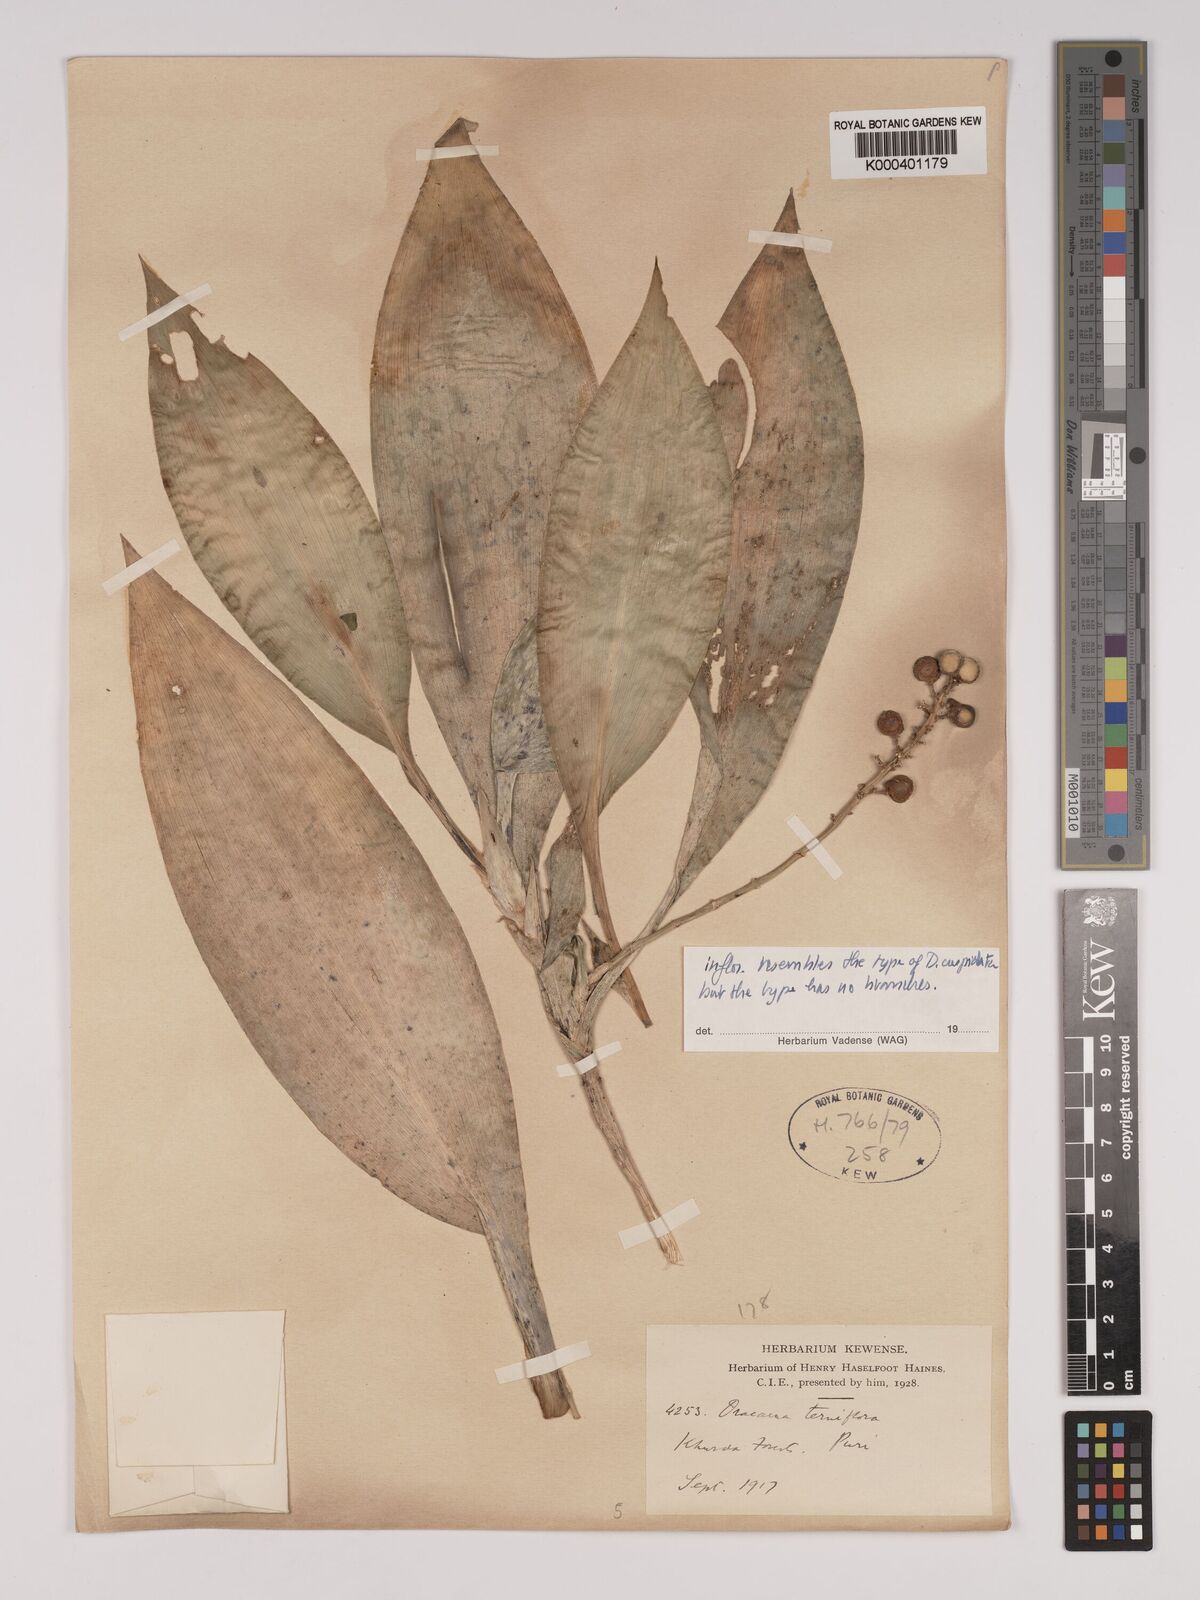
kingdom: Plantae
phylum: Tracheophyta
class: Liliopsida
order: Asparagales
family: Asparagaceae
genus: Dracaena
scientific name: Dracaena terniflora
